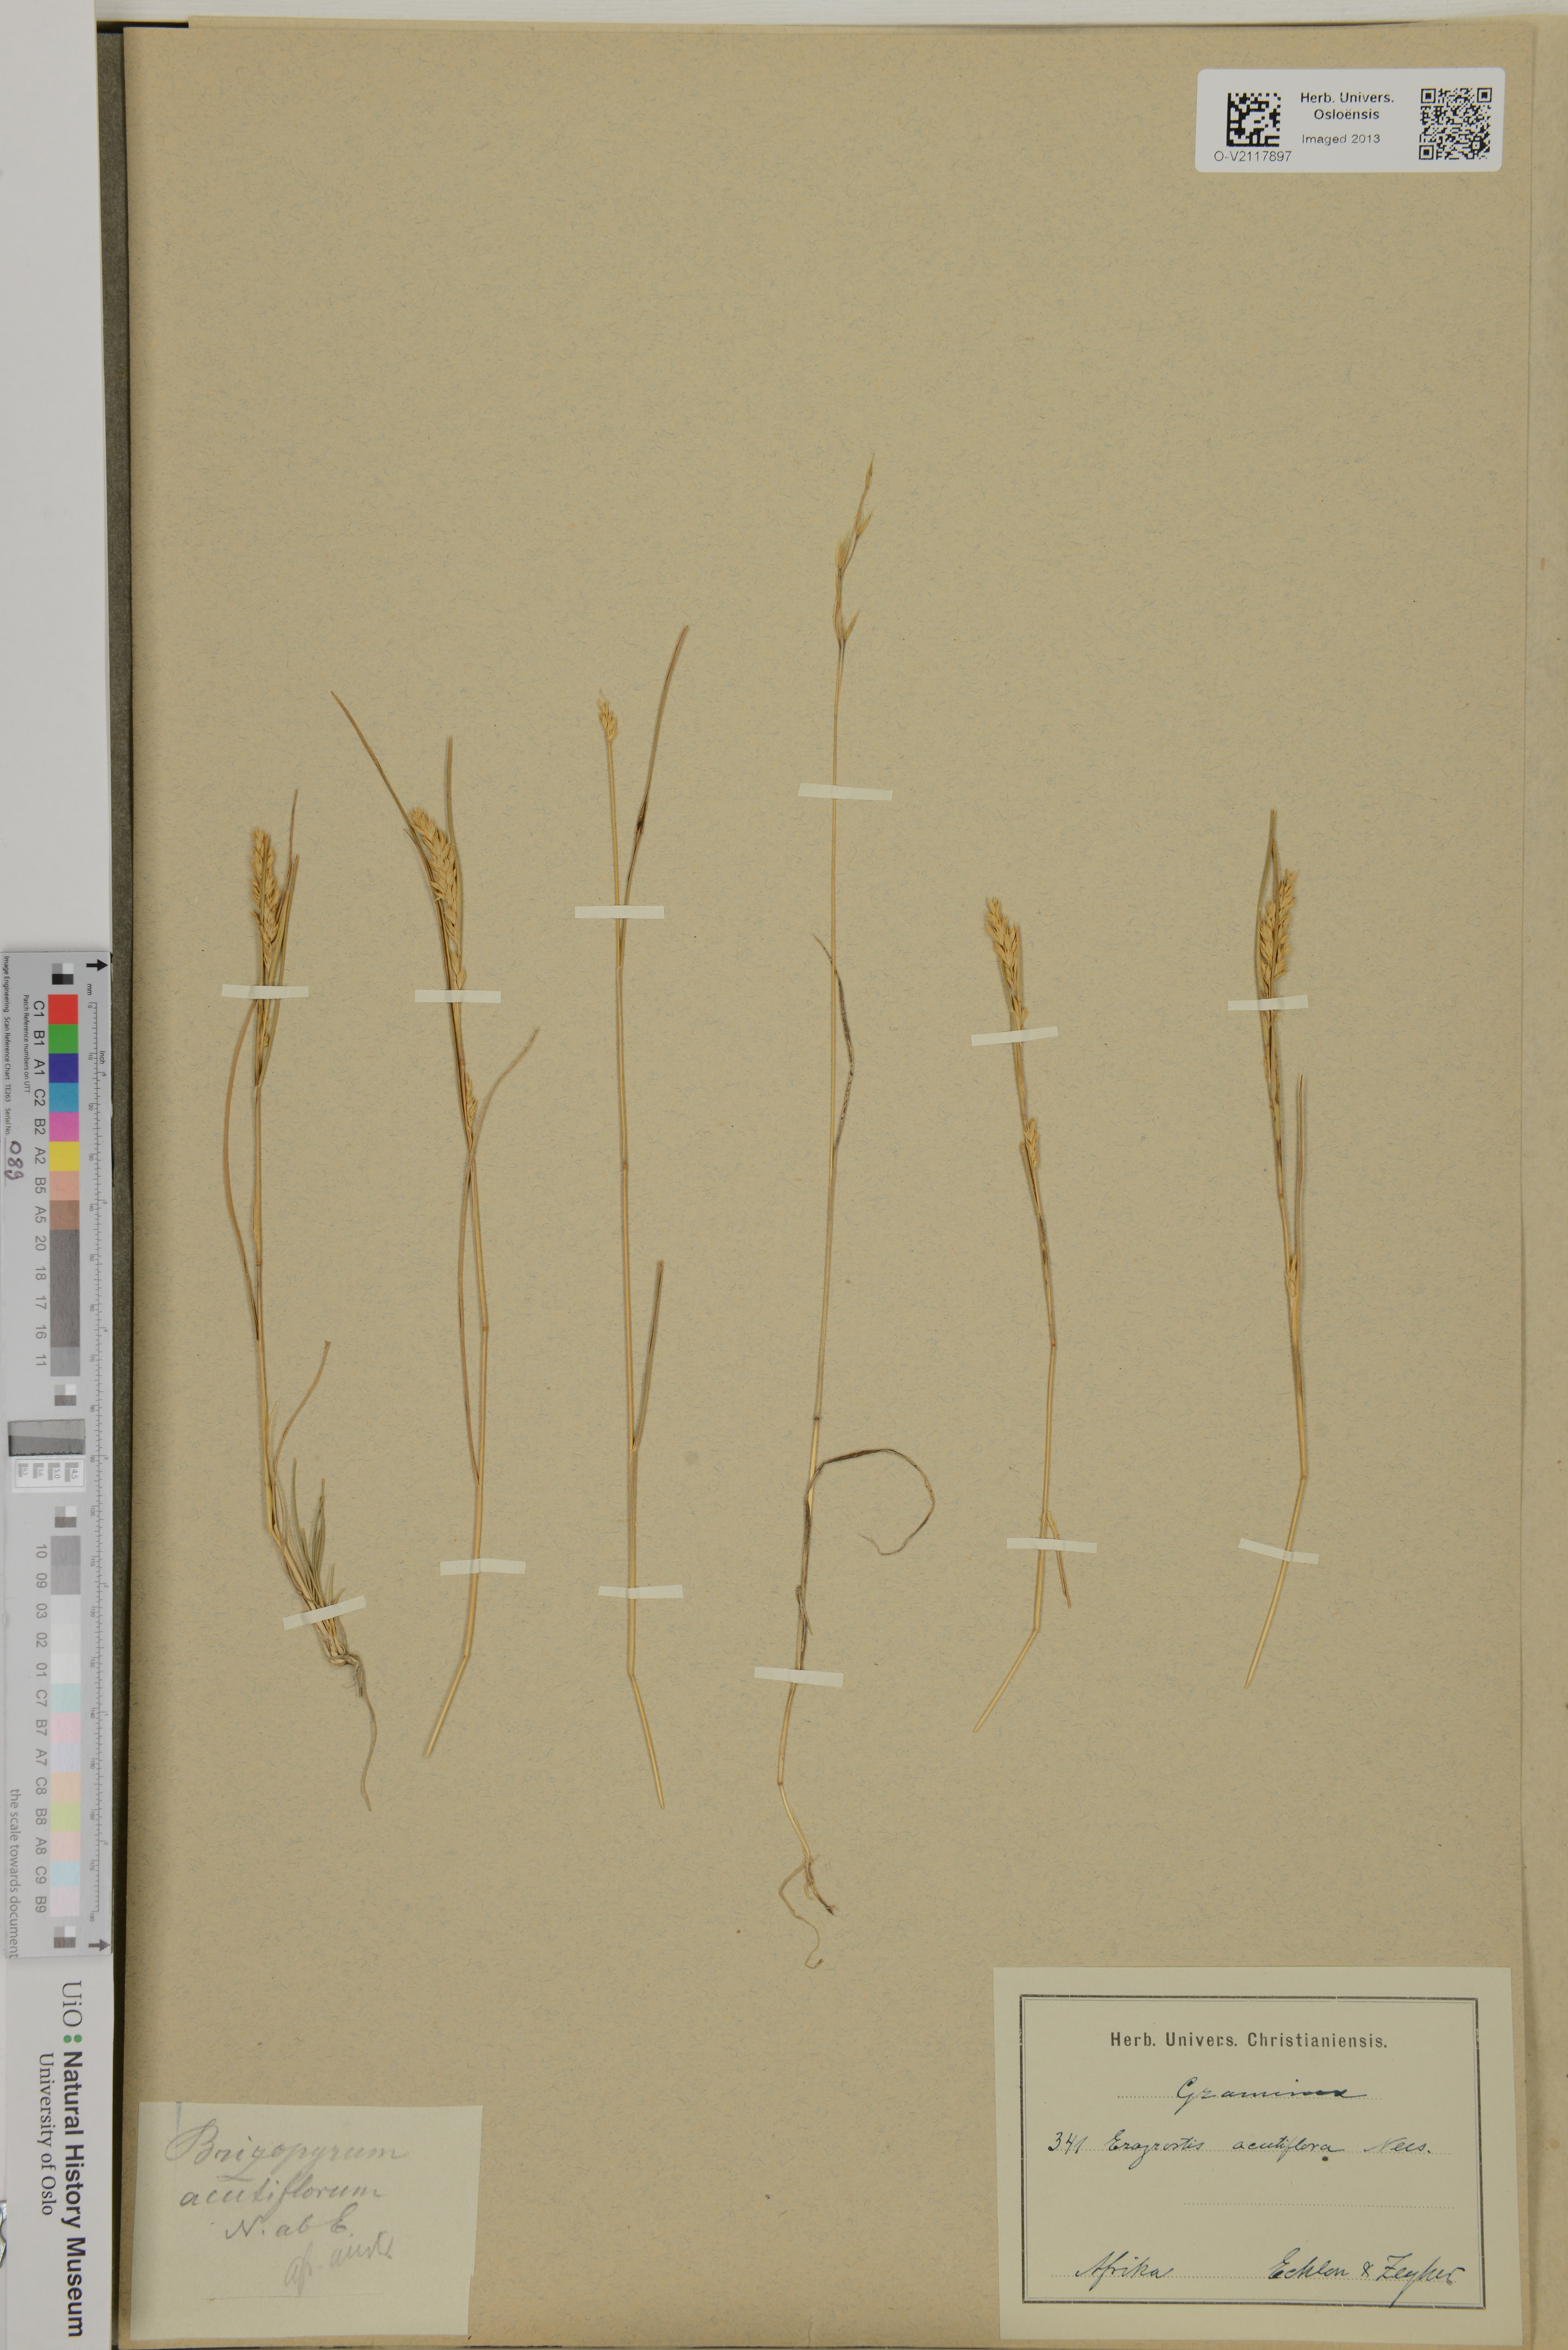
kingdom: Plantae
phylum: Tracheophyta
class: Liliopsida
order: Poales
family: Poaceae
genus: Eragrostis
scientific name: Eragrostis acutiflora
